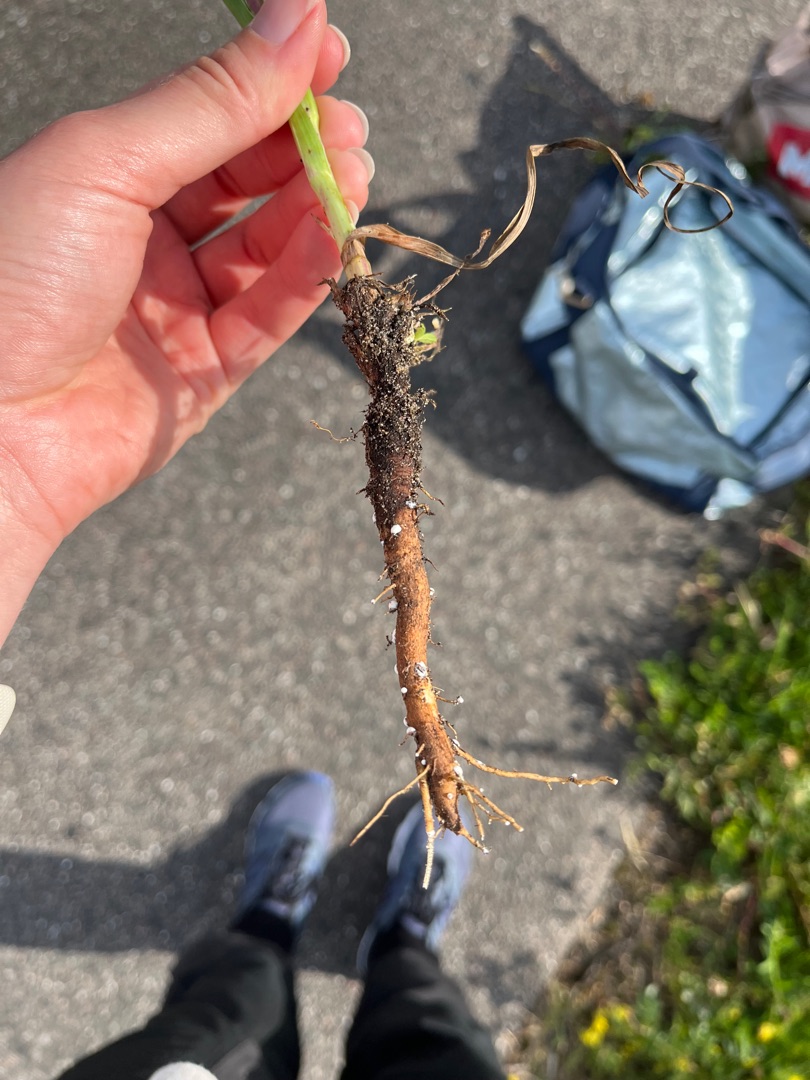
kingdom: Plantae
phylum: Tracheophyta
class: Magnoliopsida
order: Asterales
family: Asteraceae
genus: Tragopogon
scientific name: Tragopogon minor
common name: Småkronet gedeskæg
